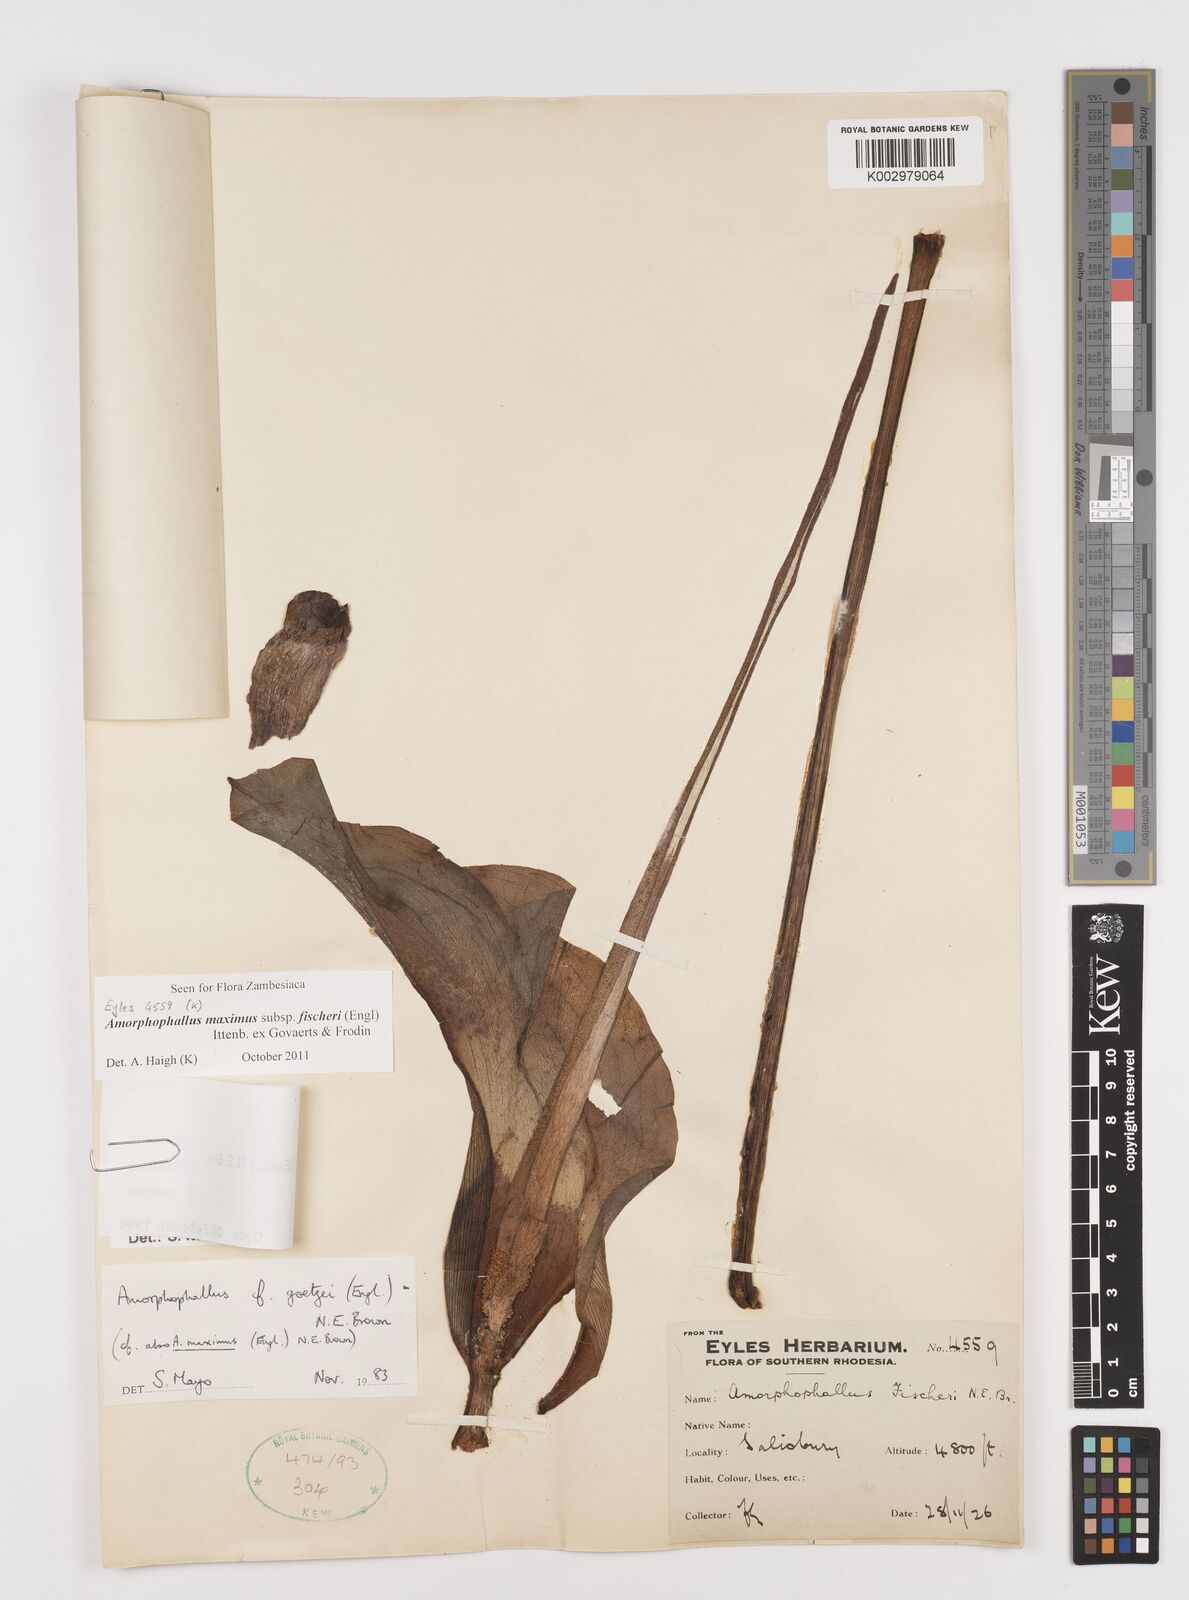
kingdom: Plantae
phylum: Tracheophyta
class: Liliopsida
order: Alismatales
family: Araceae
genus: Amorphophallus
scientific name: Amorphophallus maximus
